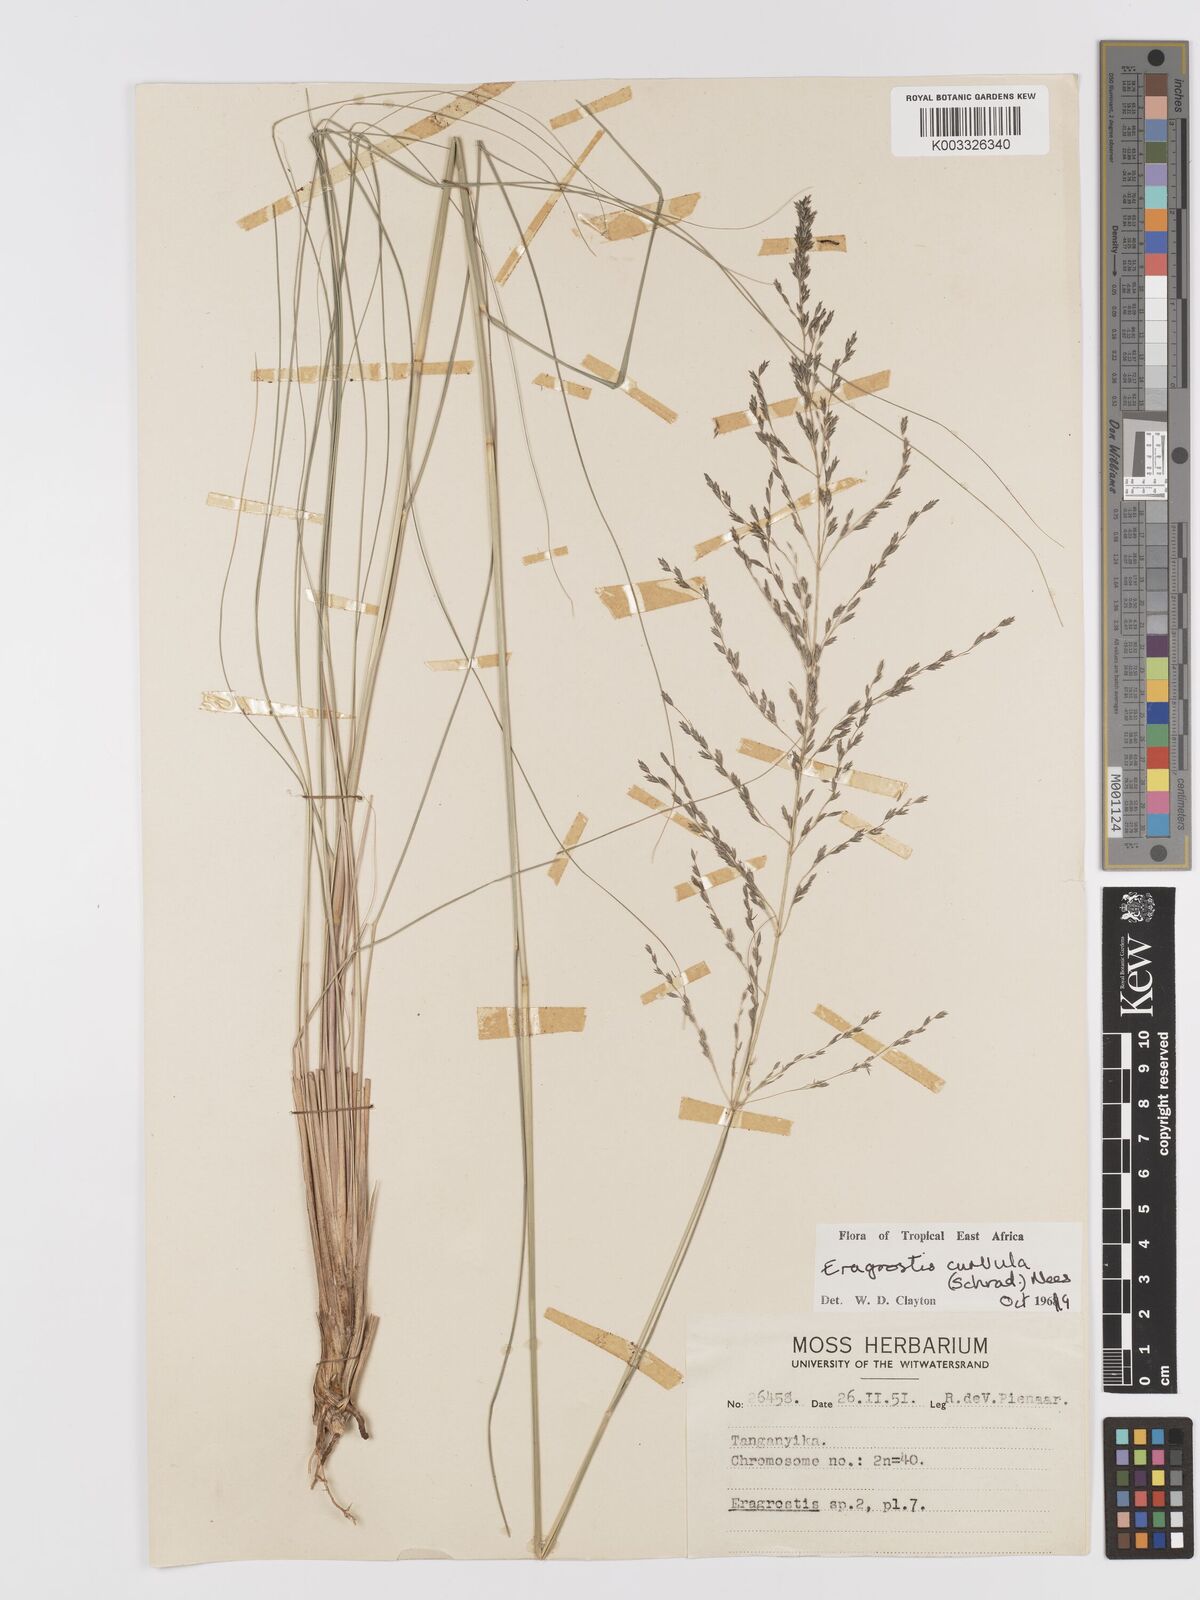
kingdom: Plantae
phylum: Tracheophyta
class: Liliopsida
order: Poales
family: Poaceae
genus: Eragrostis
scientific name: Eragrostis curvula
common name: African love-grass
